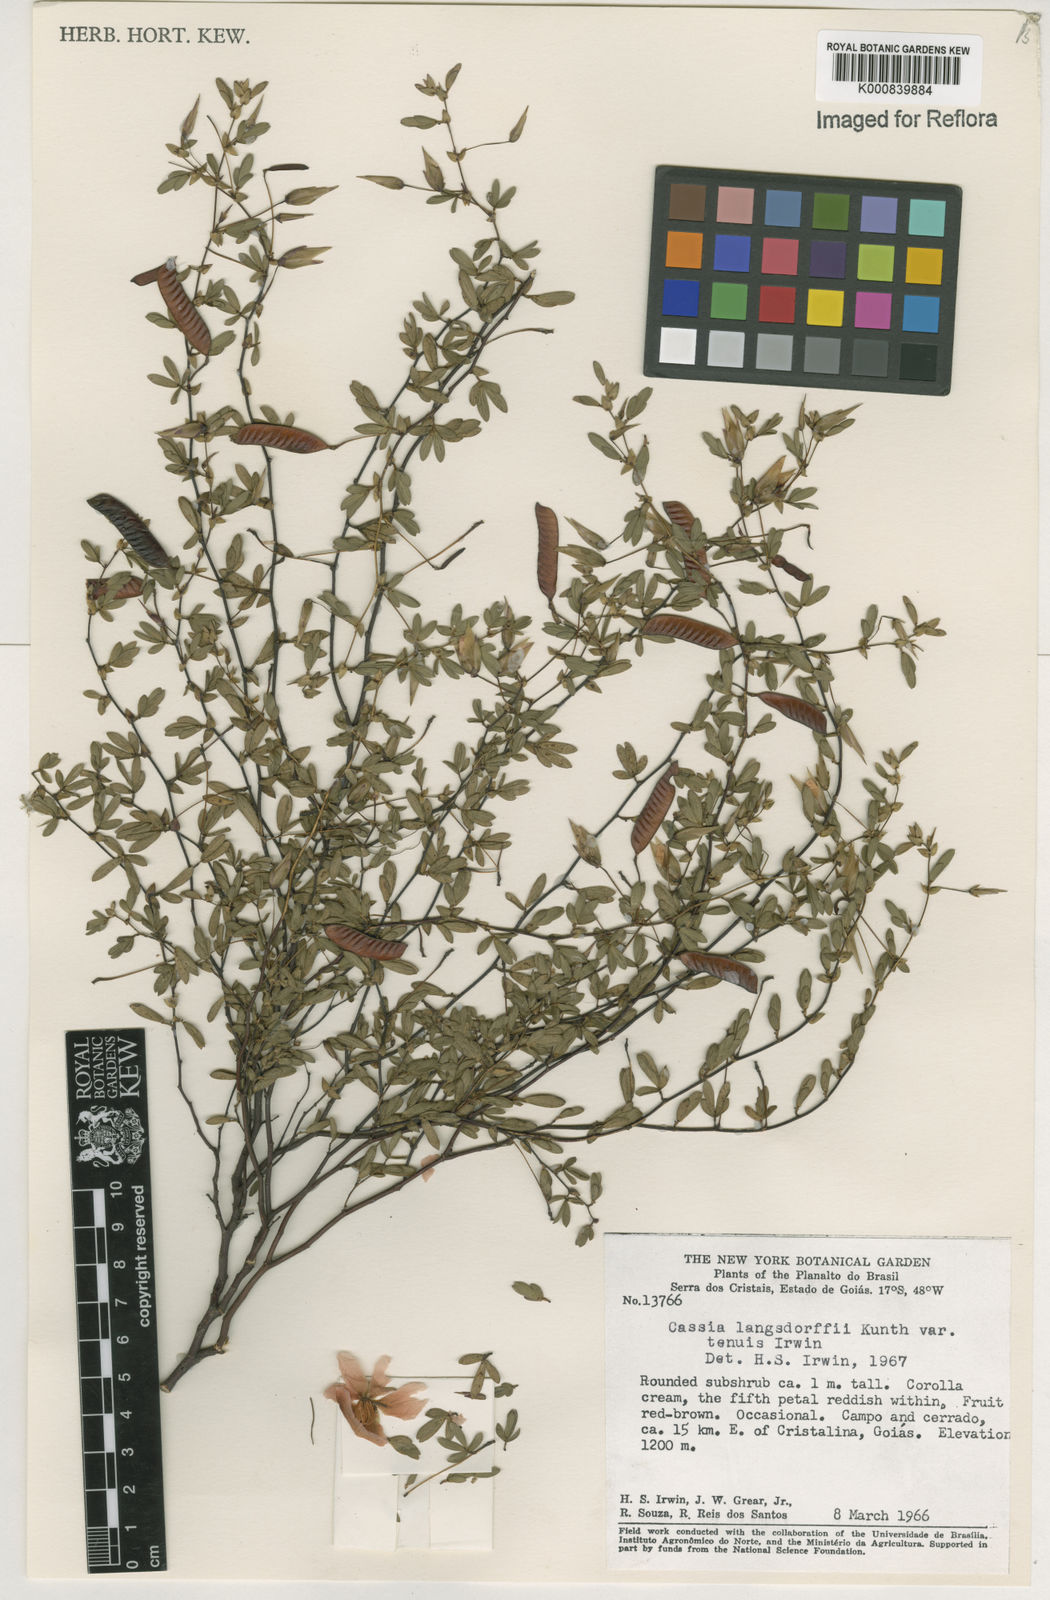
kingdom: Plantae
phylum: Tracheophyta
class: Magnoliopsida
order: Fabales
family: Fabaceae
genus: Chamaecrista
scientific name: Chamaecrista ramosa
